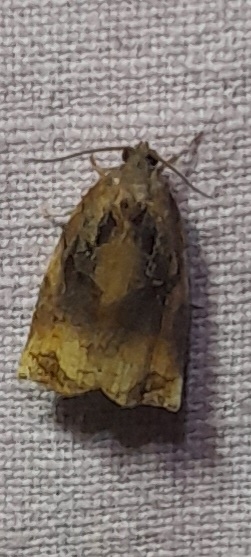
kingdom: Animalia
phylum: Arthropoda
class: Insecta
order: Lepidoptera
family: Tortricidae
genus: Archips
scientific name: Archips podana
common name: Frugttræsommervikler
